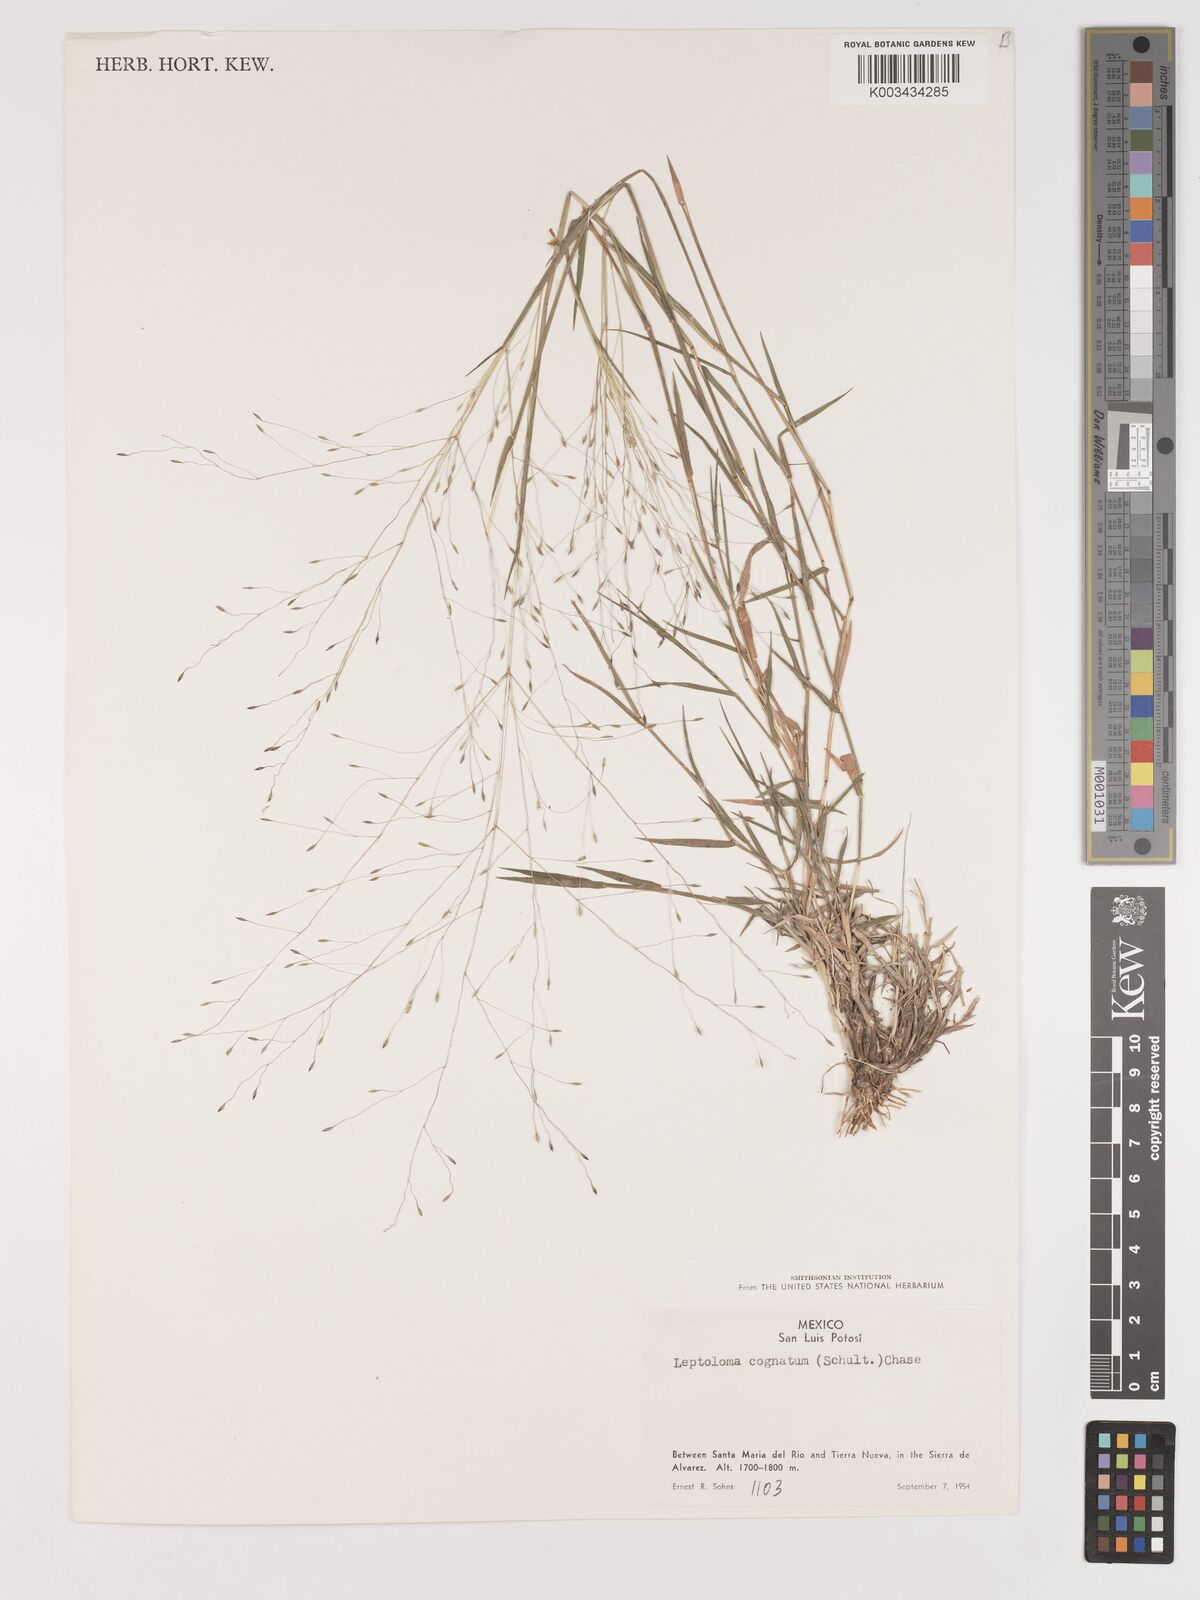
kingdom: Plantae
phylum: Tracheophyta
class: Liliopsida
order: Poales
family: Poaceae
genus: Digitaria
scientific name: Digitaria cognata
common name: Fall witchgrass
